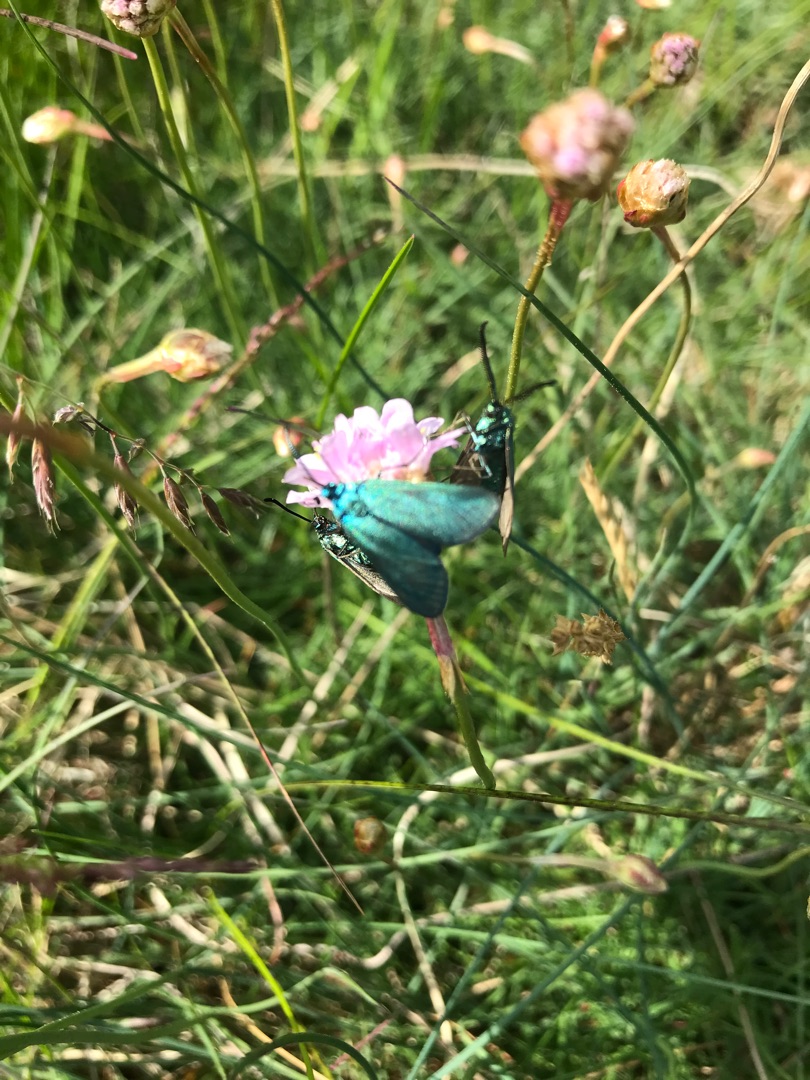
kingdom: Animalia
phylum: Arthropoda
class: Insecta
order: Lepidoptera
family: Zygaenidae
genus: Adscita
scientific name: Adscita statices
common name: Metalvinge
